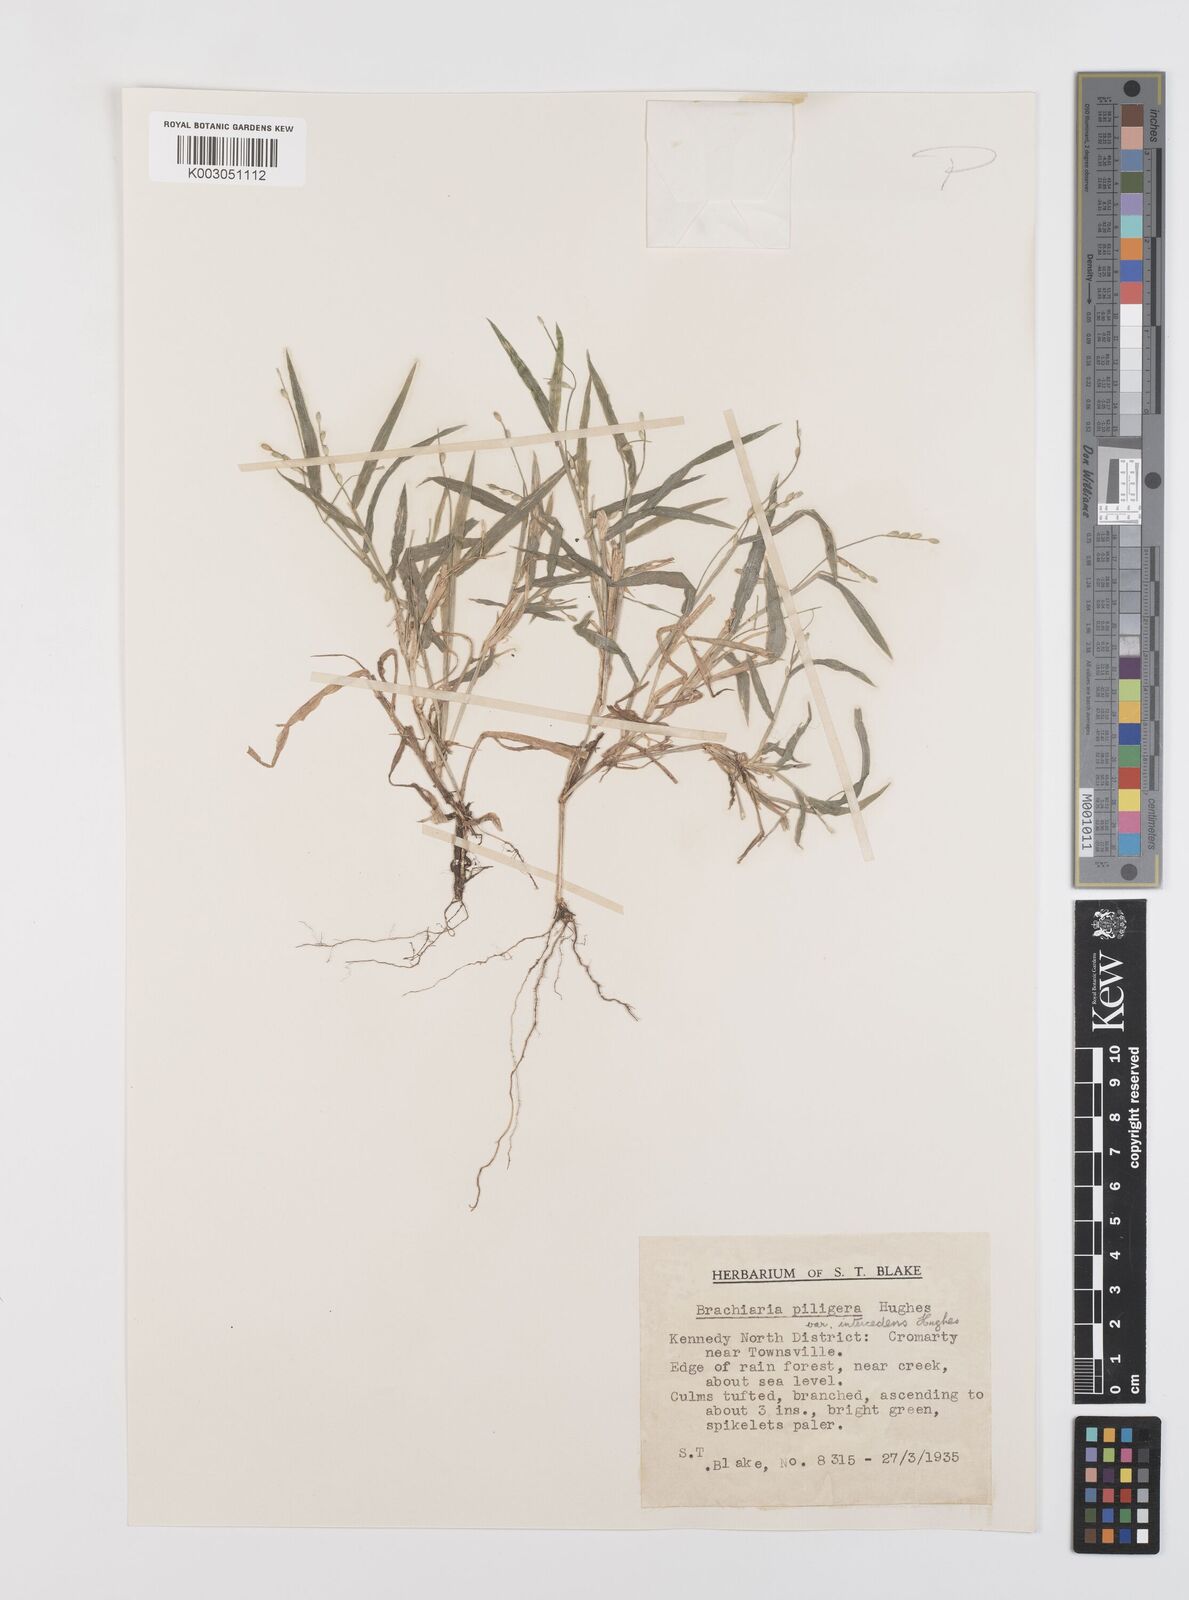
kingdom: Plantae
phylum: Tracheophyta
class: Liliopsida
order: Poales
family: Poaceae
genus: Urochloa
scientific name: Urochloa piligera
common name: Wattle signalgrass
